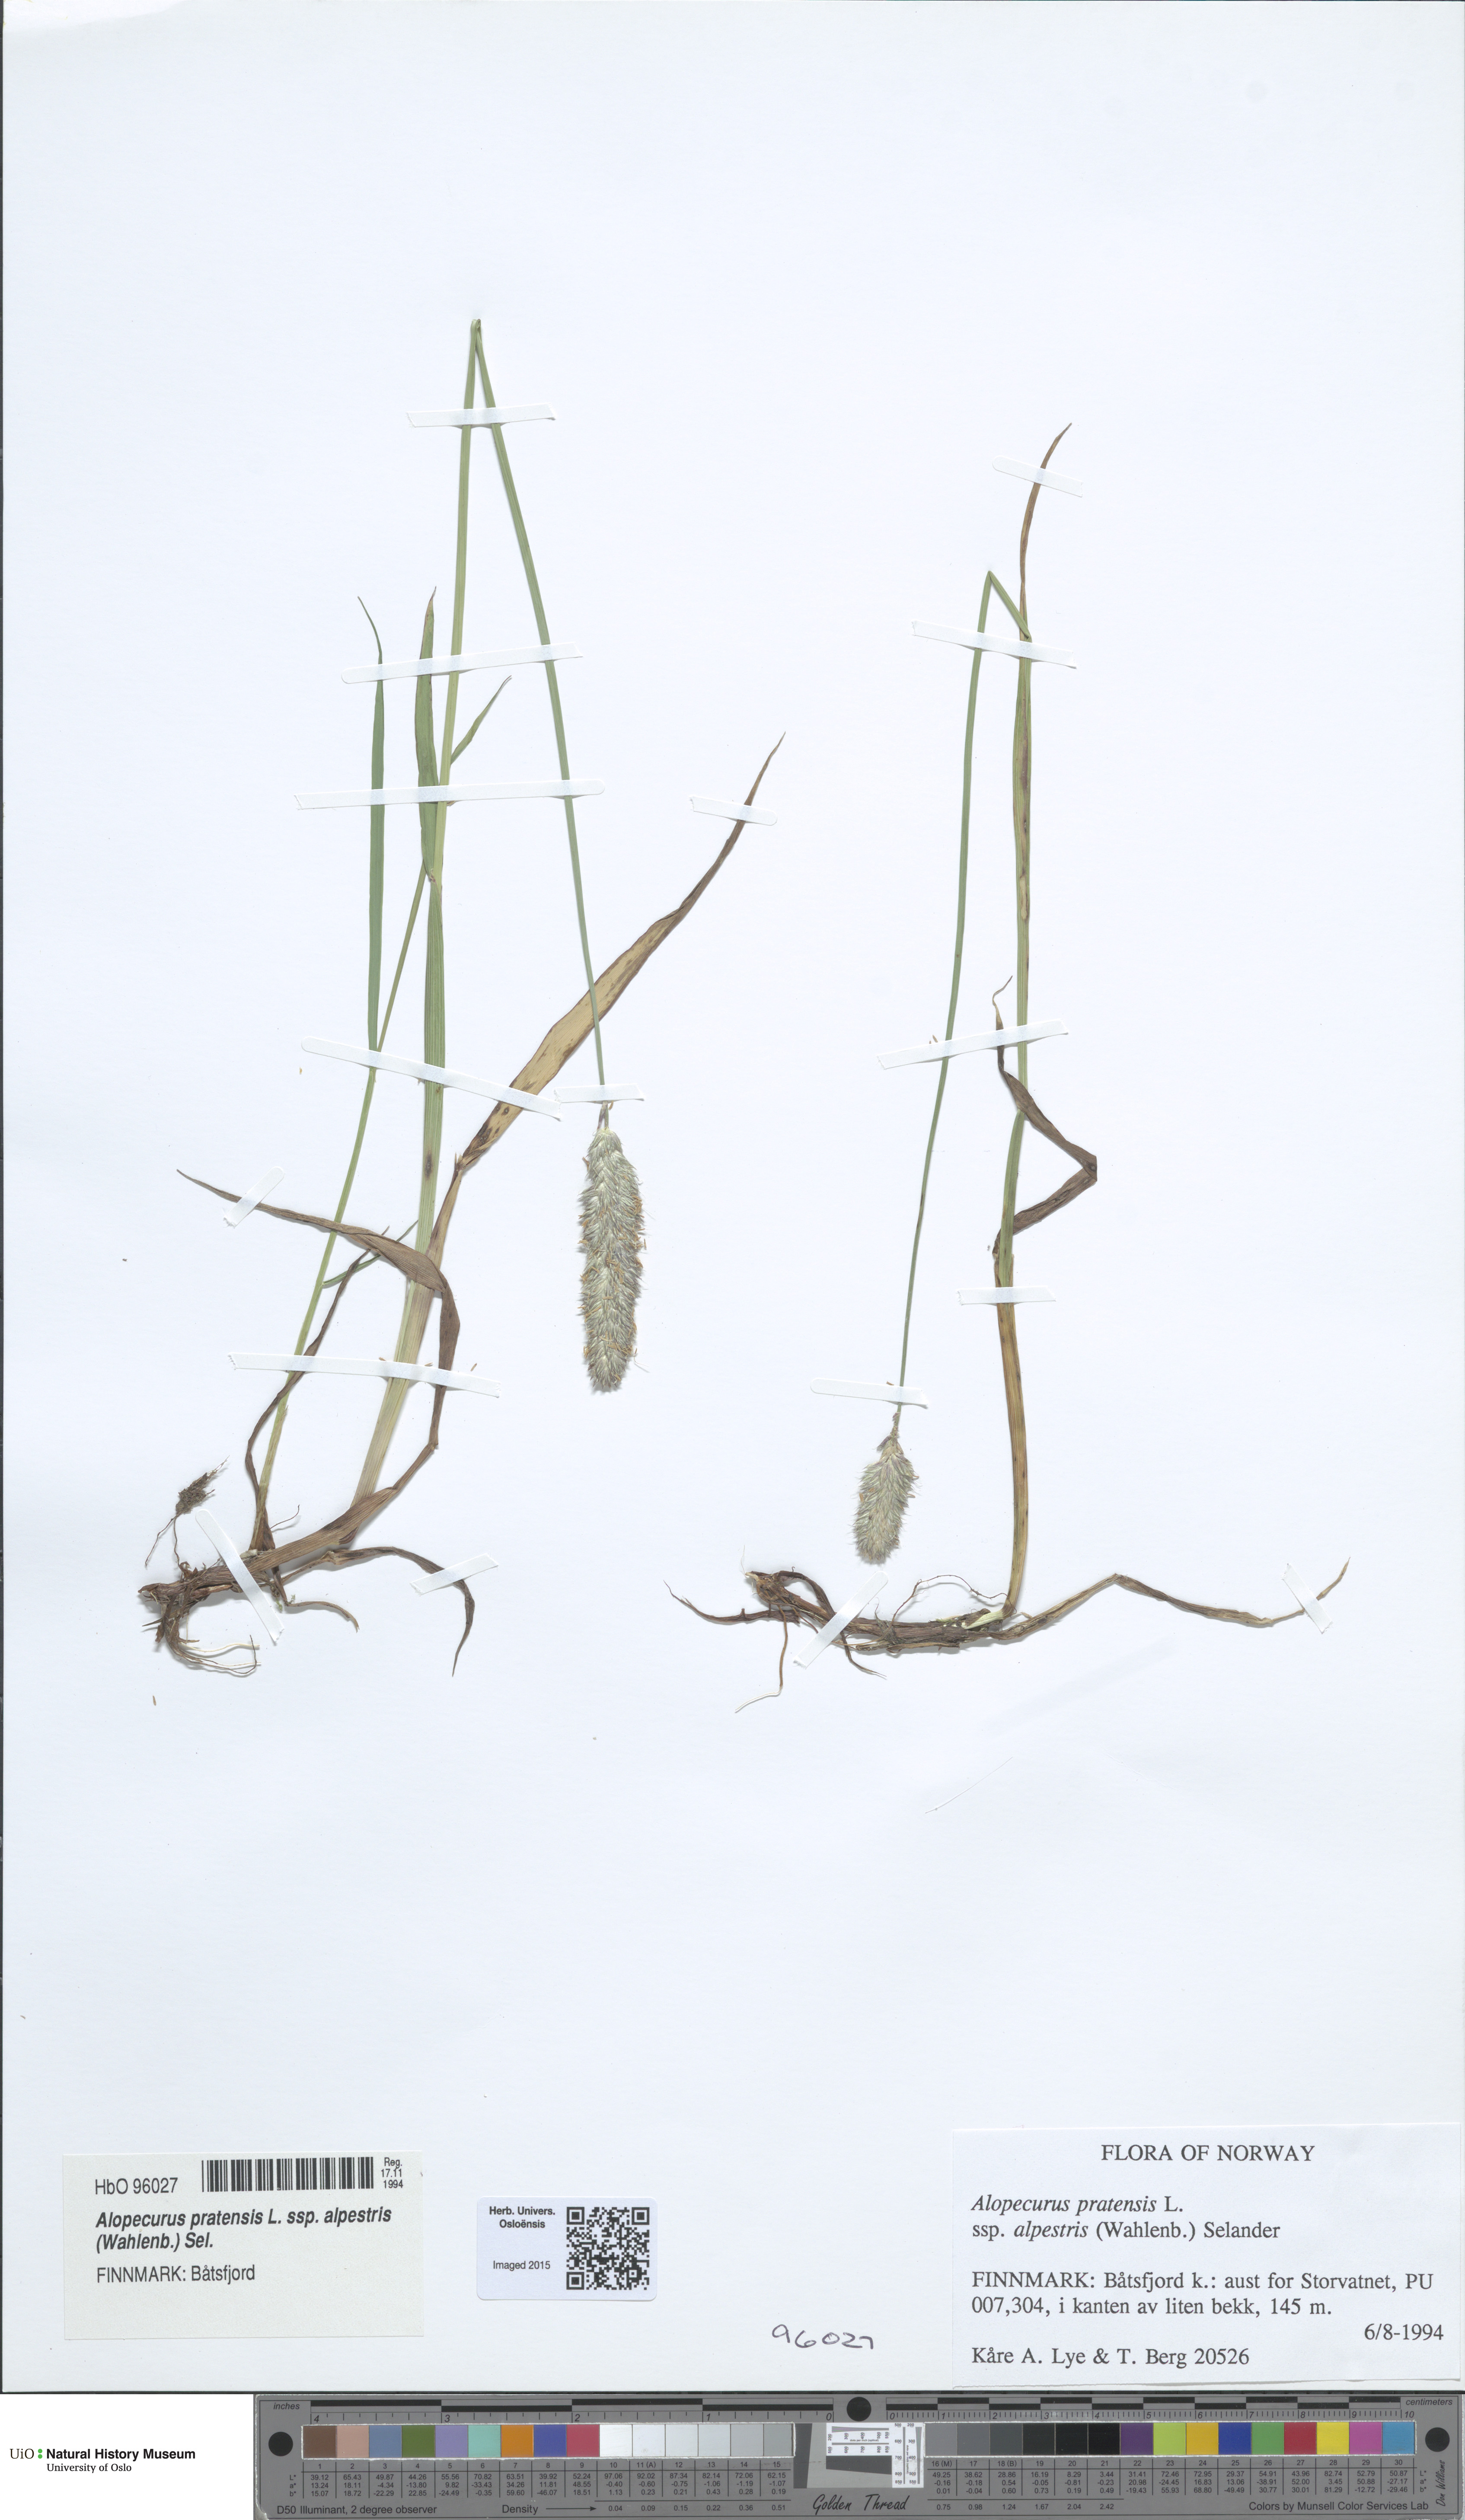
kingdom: Plantae
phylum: Tracheophyta
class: Liliopsida
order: Poales
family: Poaceae
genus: Alopecurus
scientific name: Alopecurus pratensis
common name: Meadow foxtail
